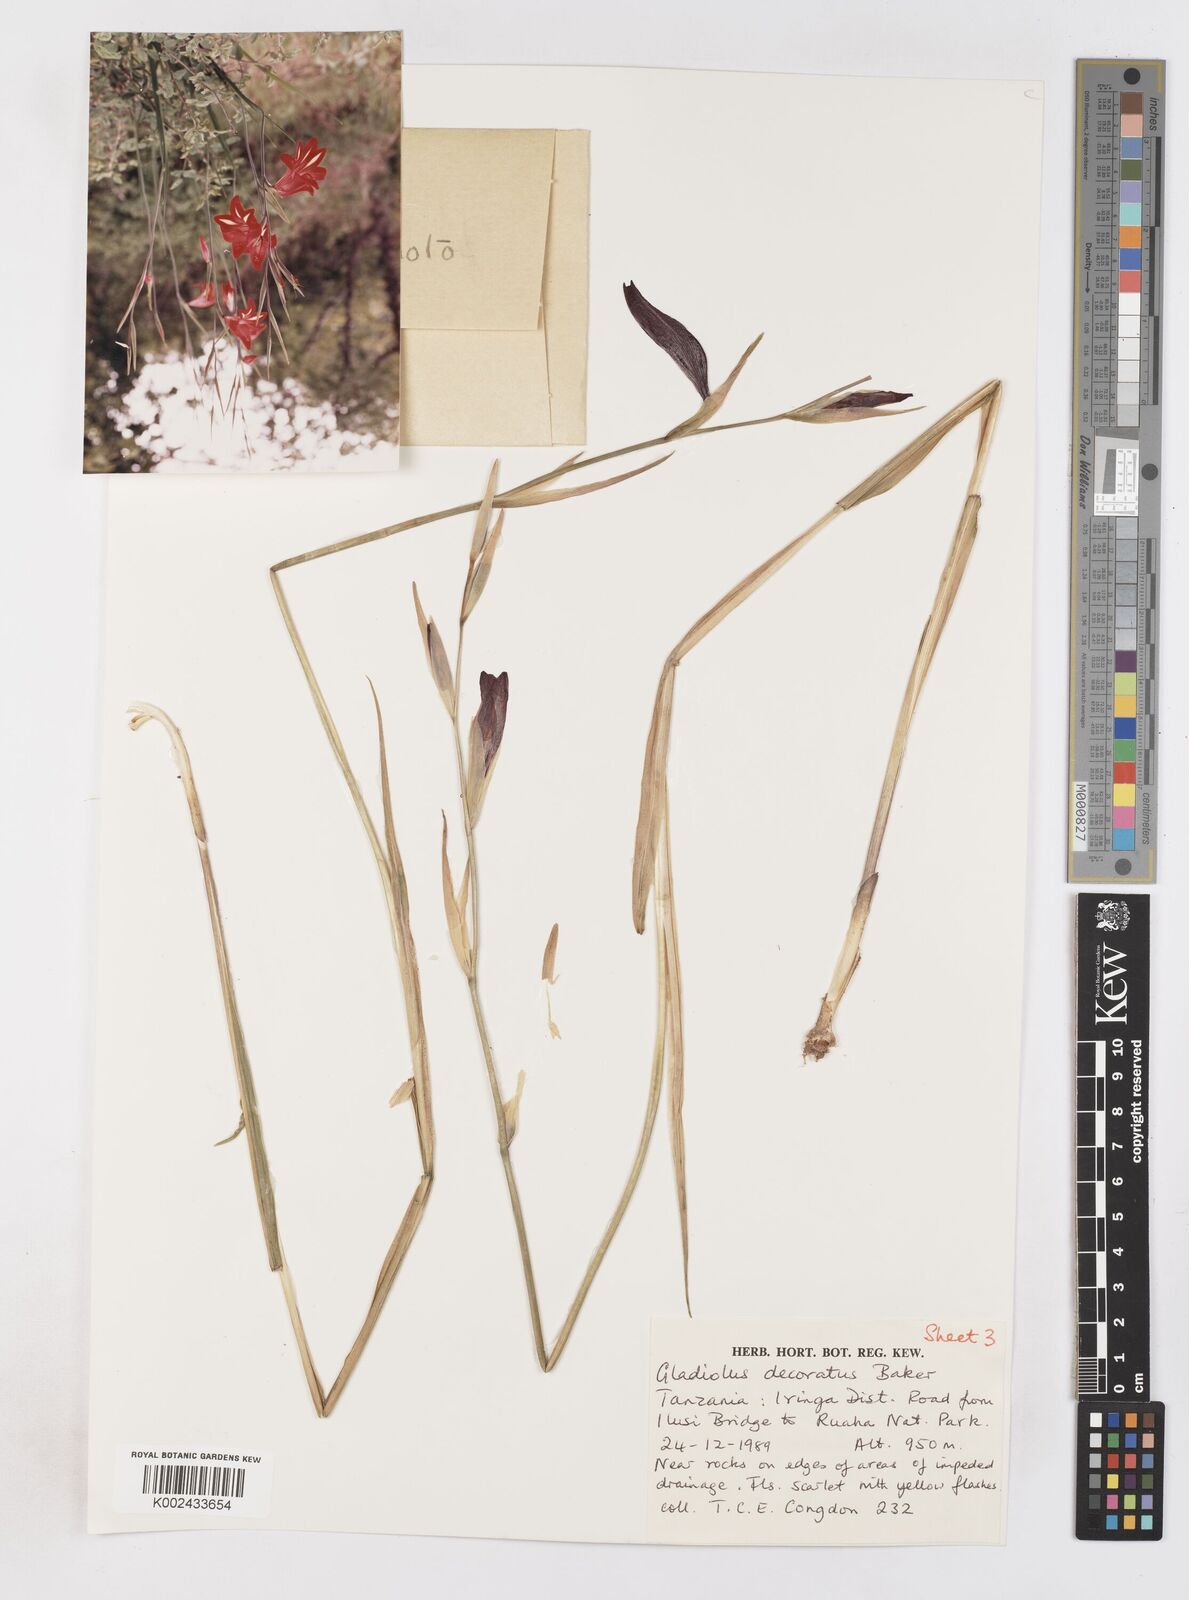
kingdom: Plantae
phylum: Tracheophyta
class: Liliopsida
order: Asparagales
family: Iridaceae
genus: Gladiolus
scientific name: Gladiolus decoratus
